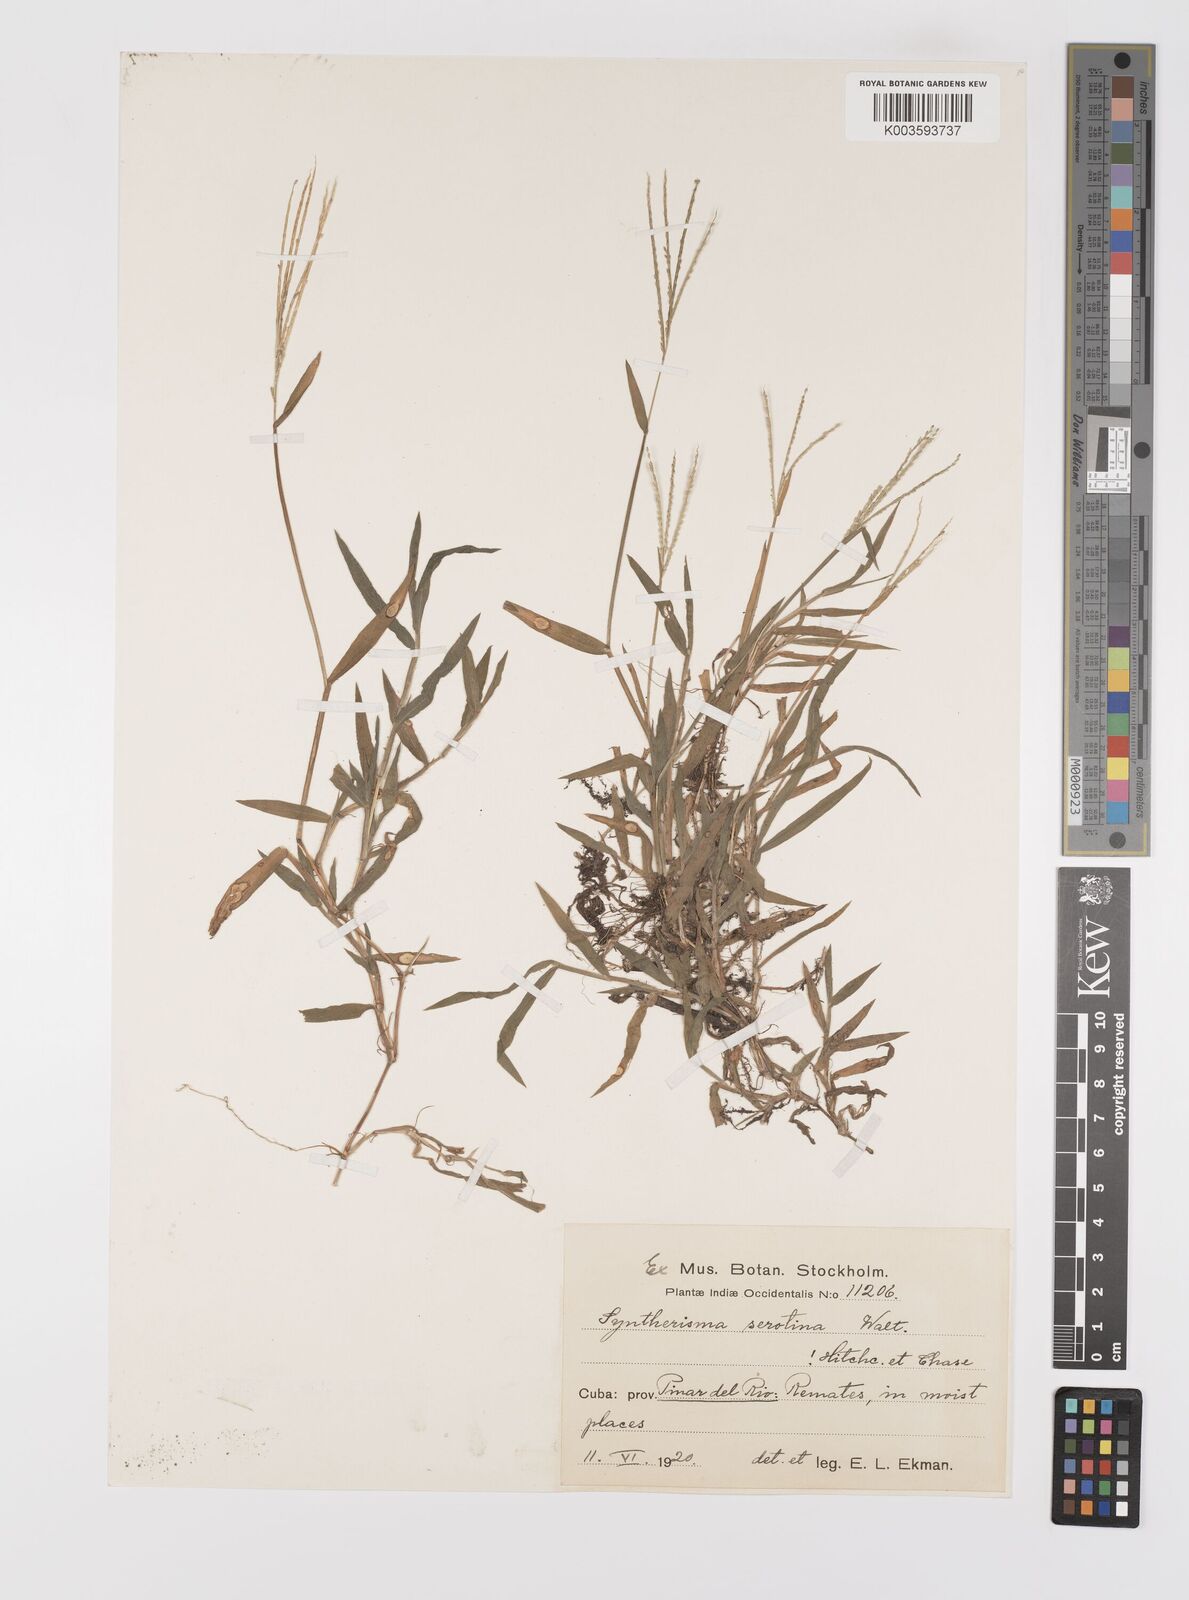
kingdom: Plantae
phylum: Tracheophyta
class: Liliopsida
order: Poales
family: Poaceae
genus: Digitaria
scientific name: Digitaria serotina
